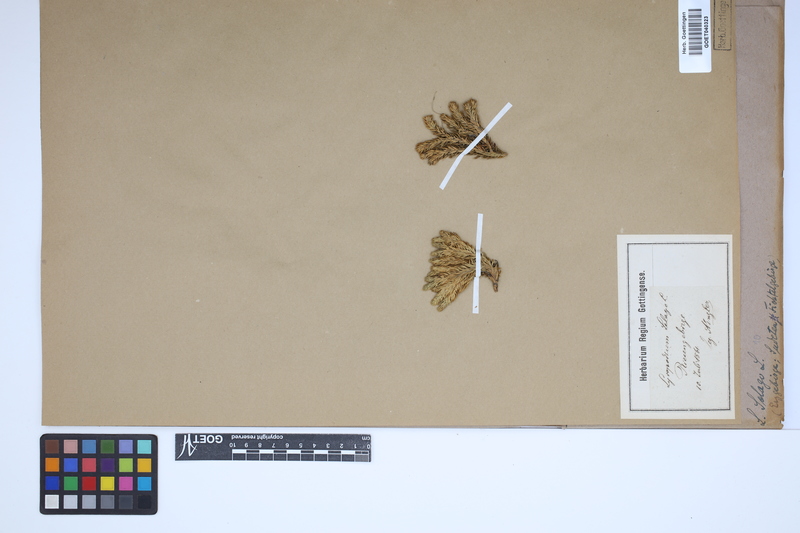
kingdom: Plantae
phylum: Tracheophyta
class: Lycopodiopsida
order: Lycopodiales
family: Lycopodiaceae
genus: Huperzia
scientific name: Huperzia selago
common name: Northern firmoss
